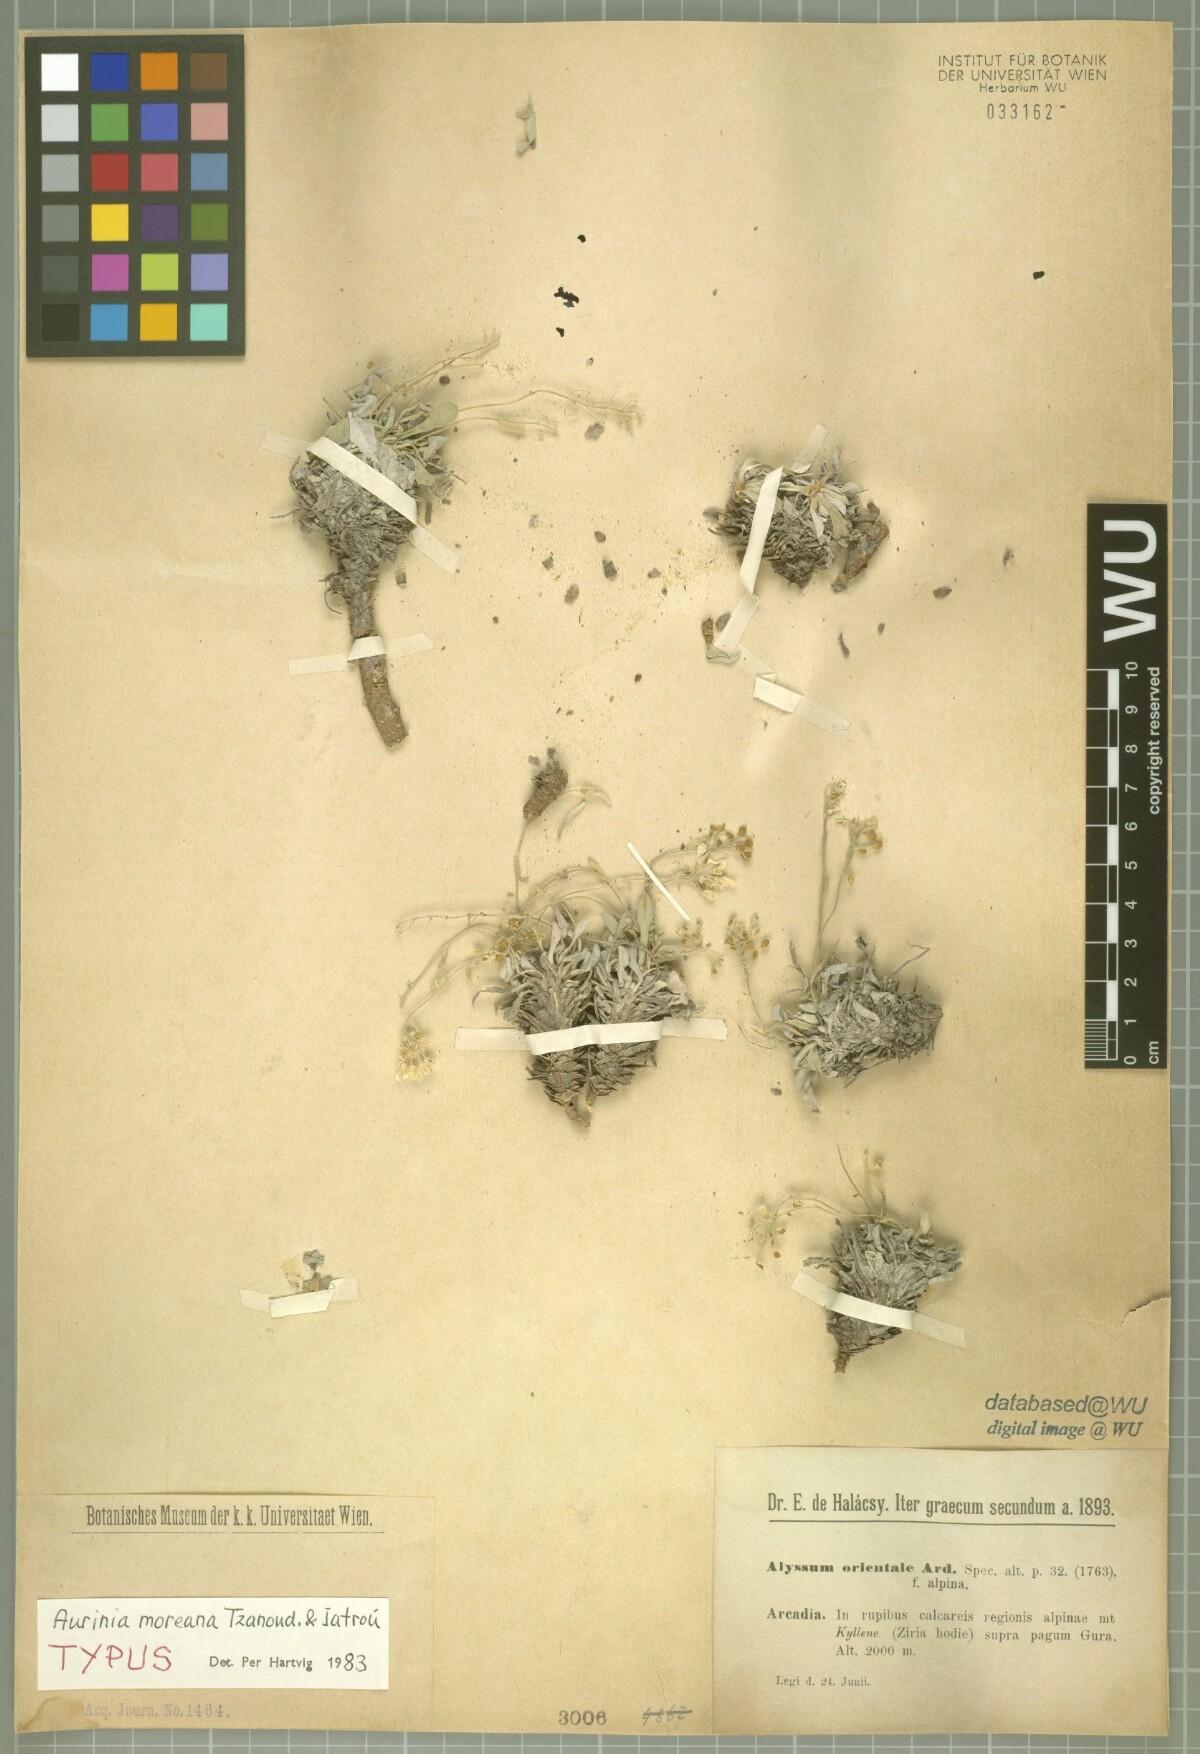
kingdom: Plantae
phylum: Tracheophyta
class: Magnoliopsida
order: Brassicales
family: Brassicaceae
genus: Aurinia
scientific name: Aurinia moreana
